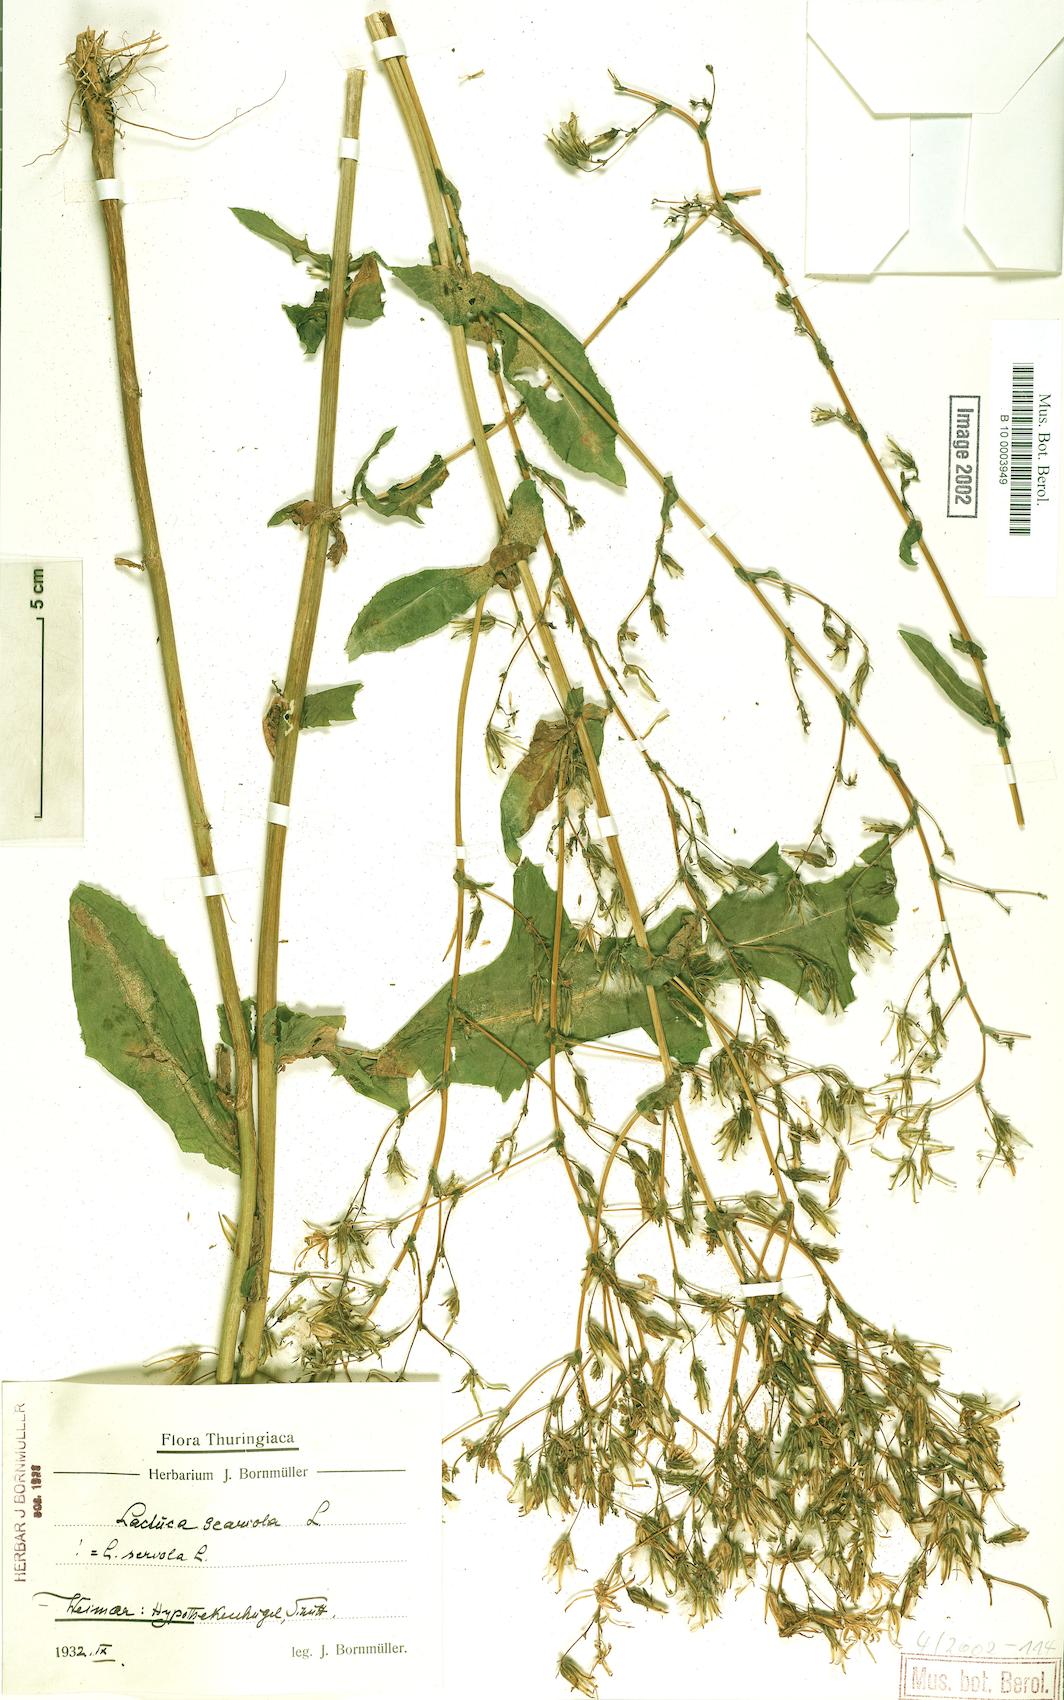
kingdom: Plantae
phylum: Tracheophyta
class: Magnoliopsida
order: Asterales
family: Asteraceae
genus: Lactuca
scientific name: Lactuca serriola
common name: Prickly lettuce
